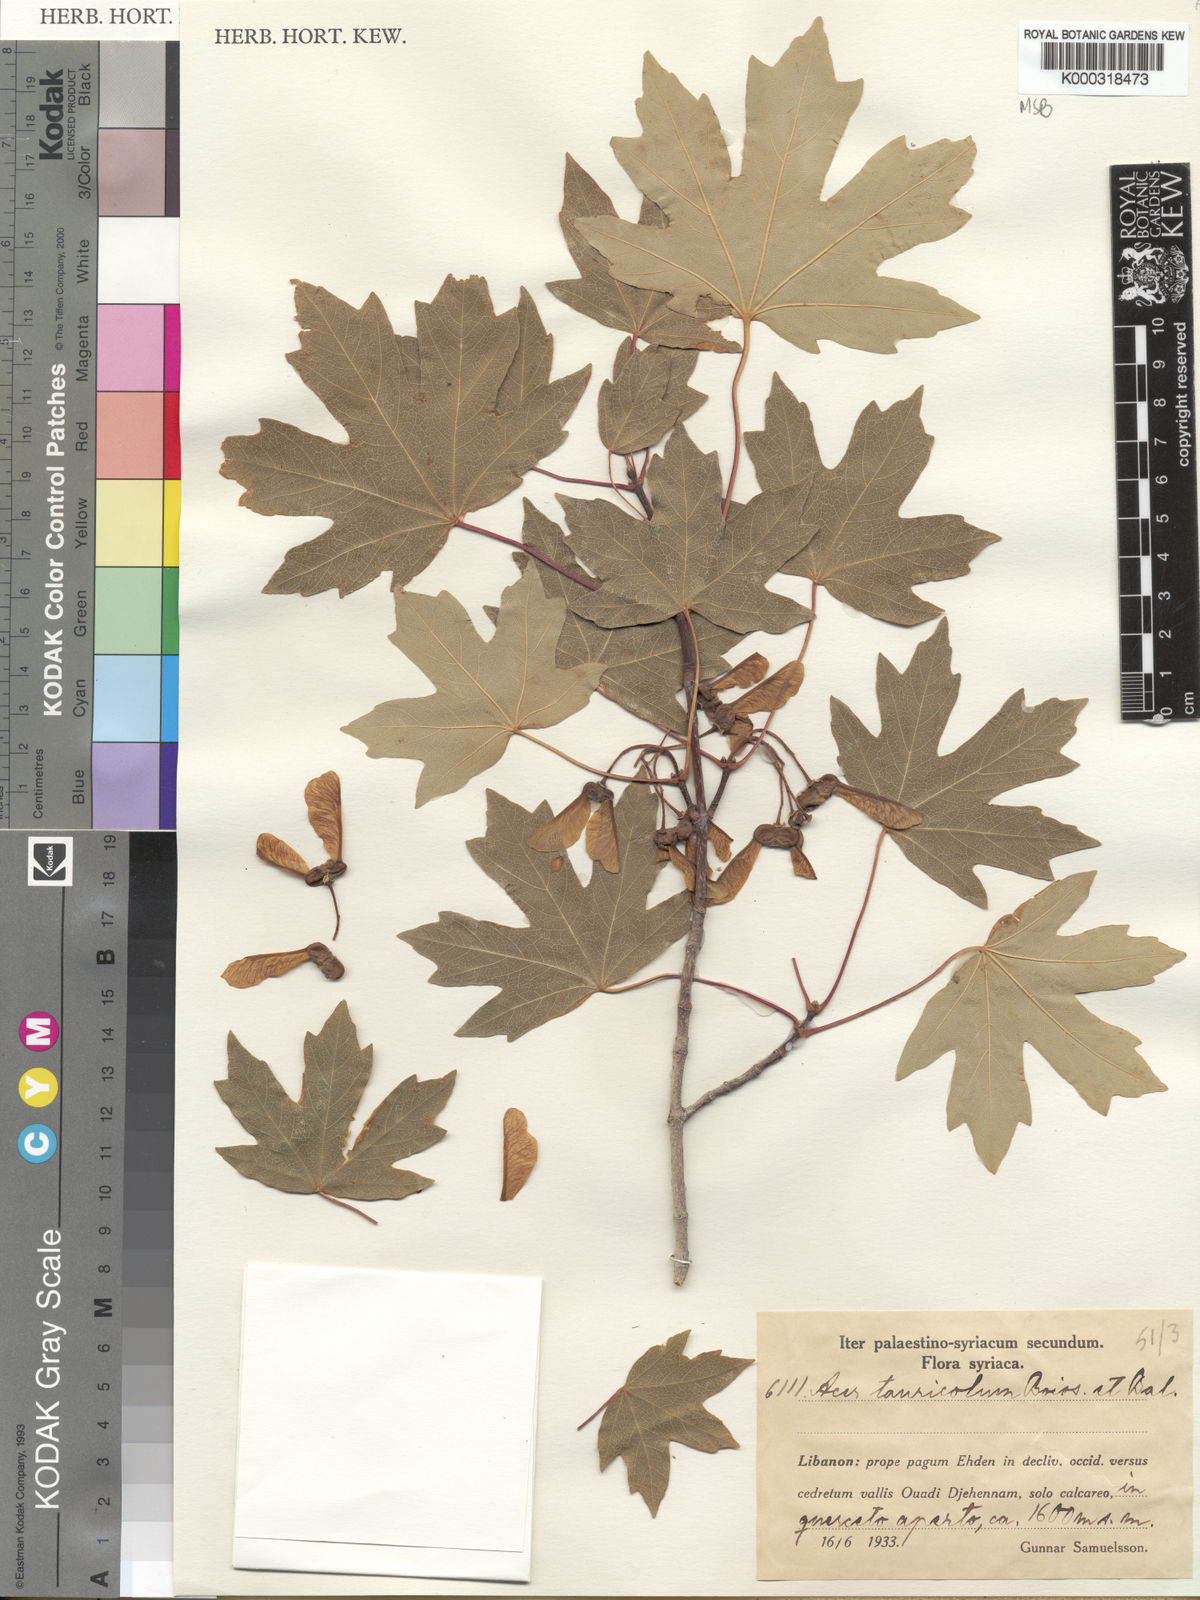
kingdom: Plantae
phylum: Tracheophyta
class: Magnoliopsida
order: Sapindales
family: Sapindaceae
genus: Acer
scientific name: Acer hyrcanum
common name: Balkan maple
